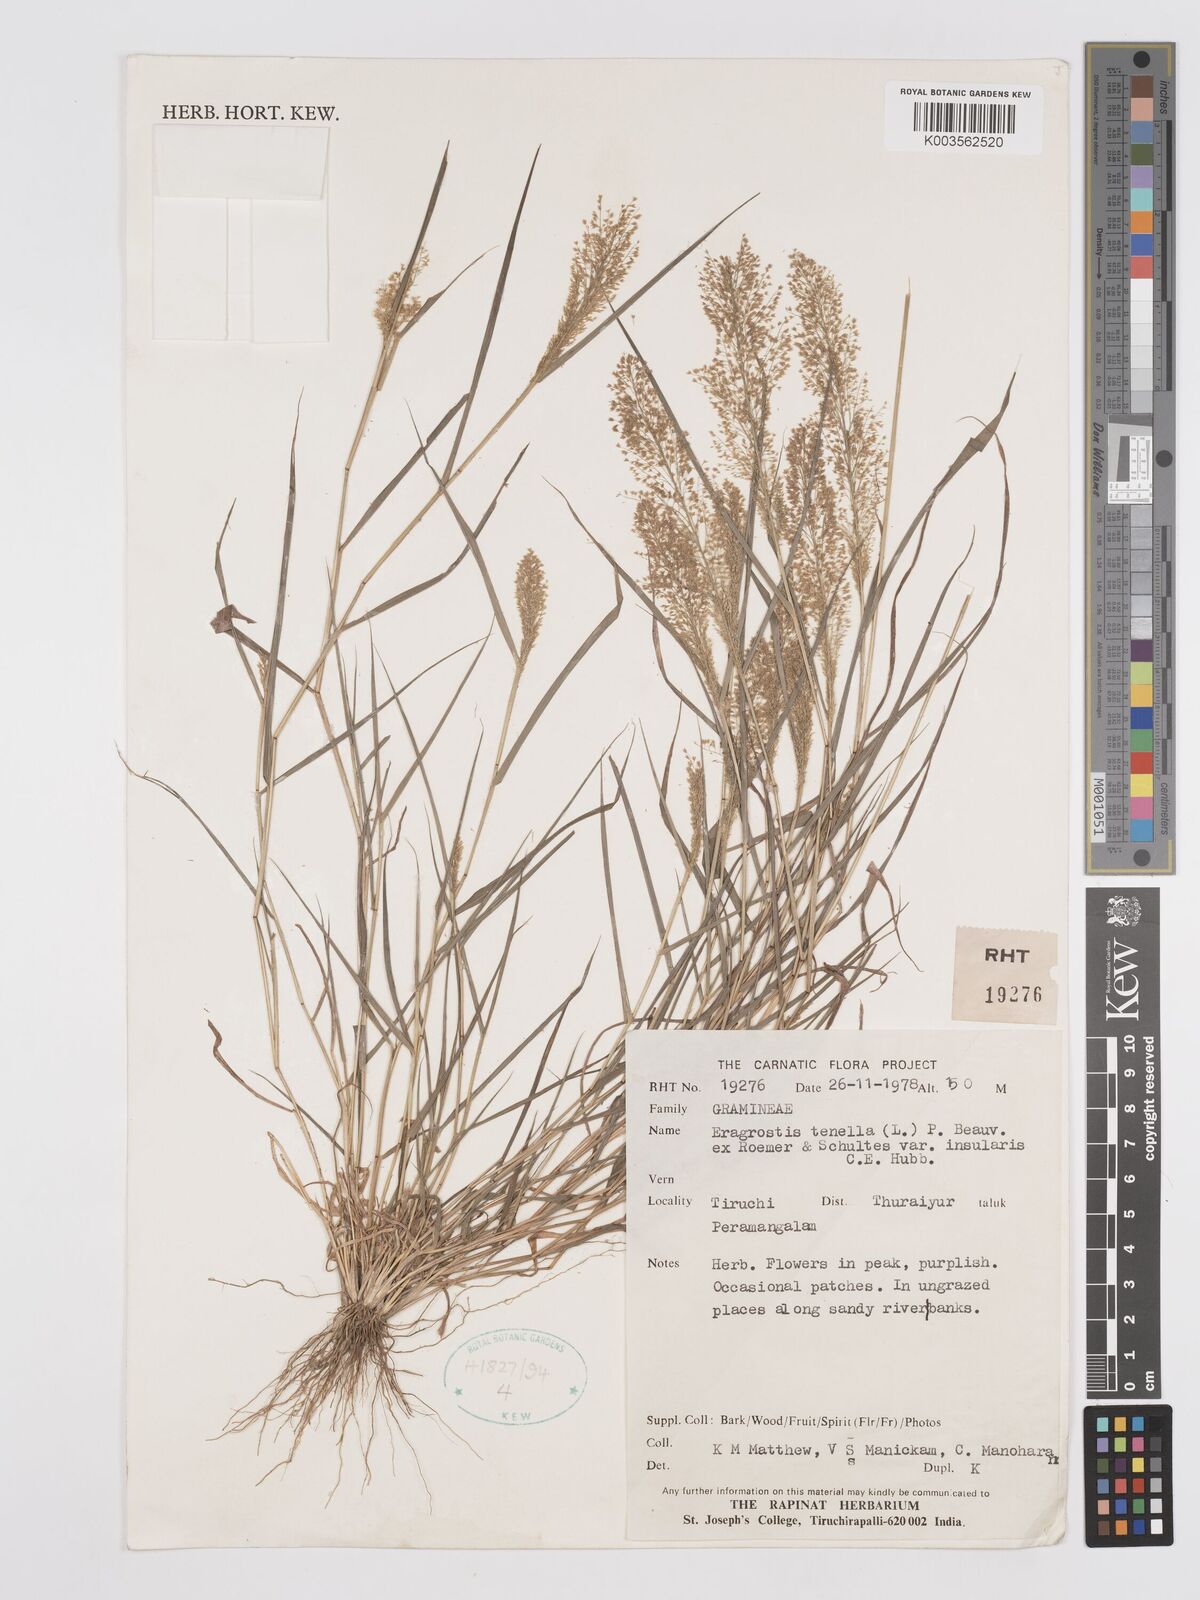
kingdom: Plantae
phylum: Tracheophyta
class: Liliopsida
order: Poales
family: Poaceae
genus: Eragrostis
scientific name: Eragrostis tenella
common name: Japanese lovegrass
